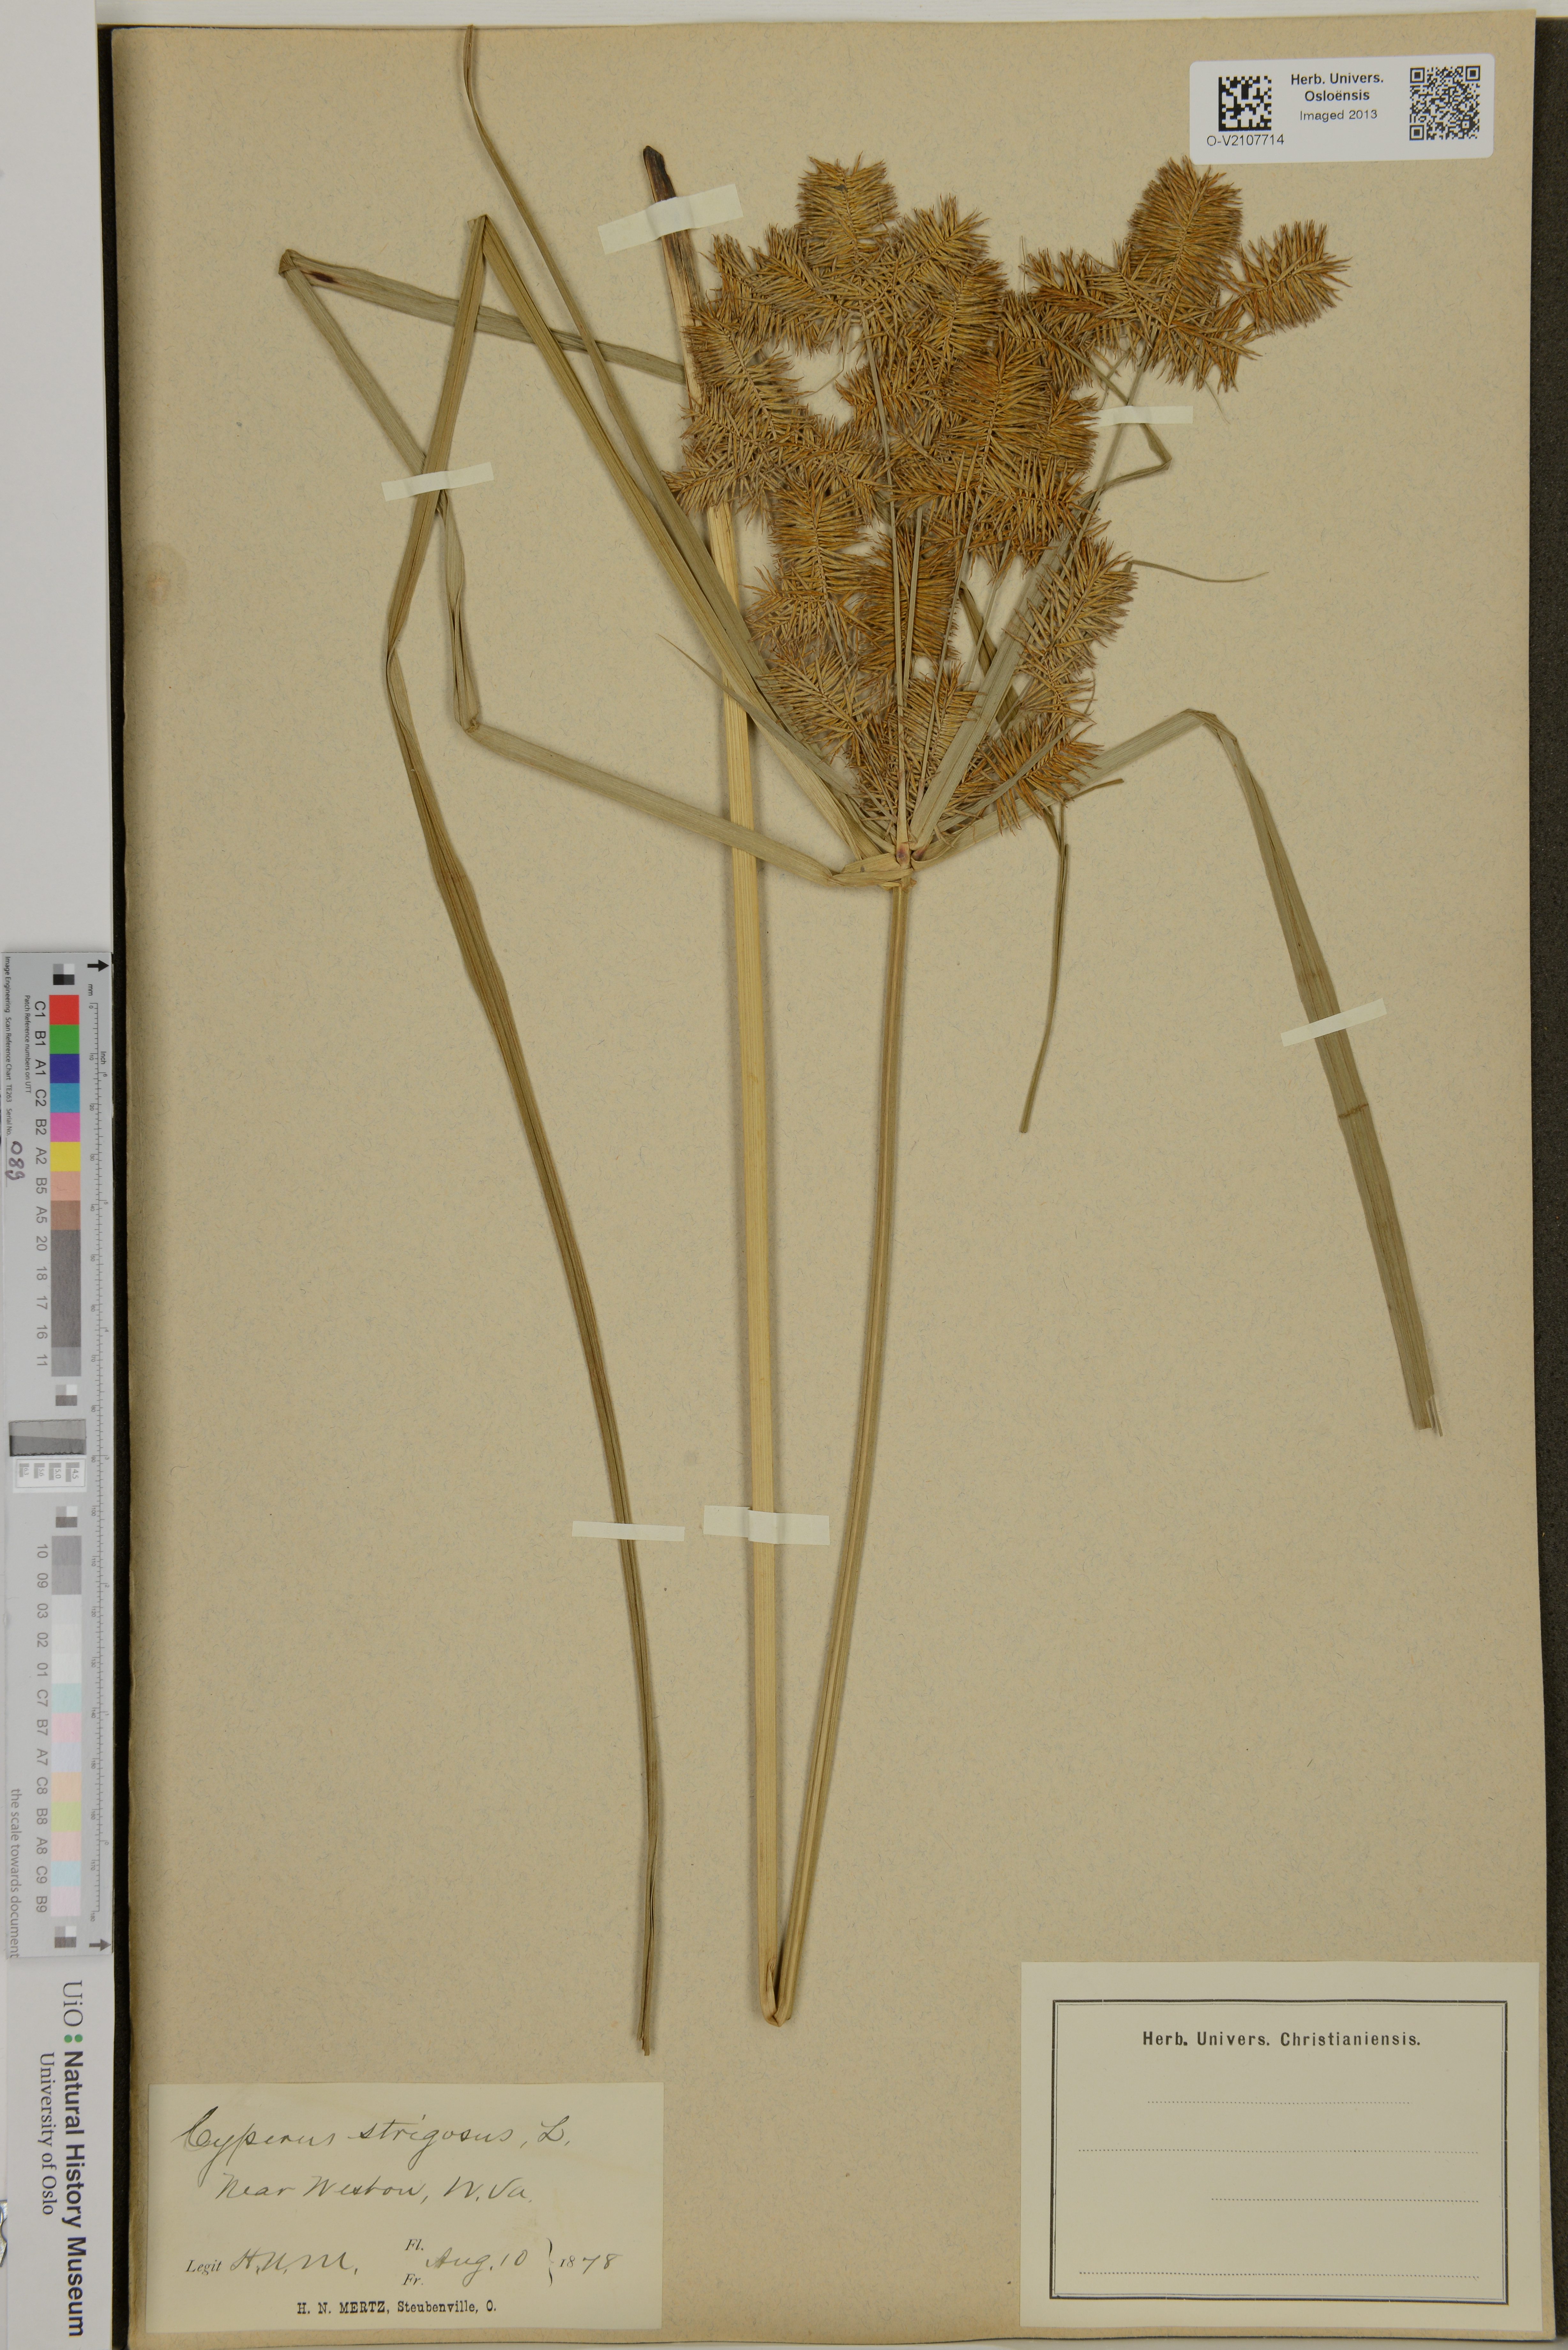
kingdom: Plantae
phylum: Tracheophyta
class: Liliopsida
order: Poales
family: Cyperaceae
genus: Cyperus
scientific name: Cyperus strigosus
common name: False nutsedge
